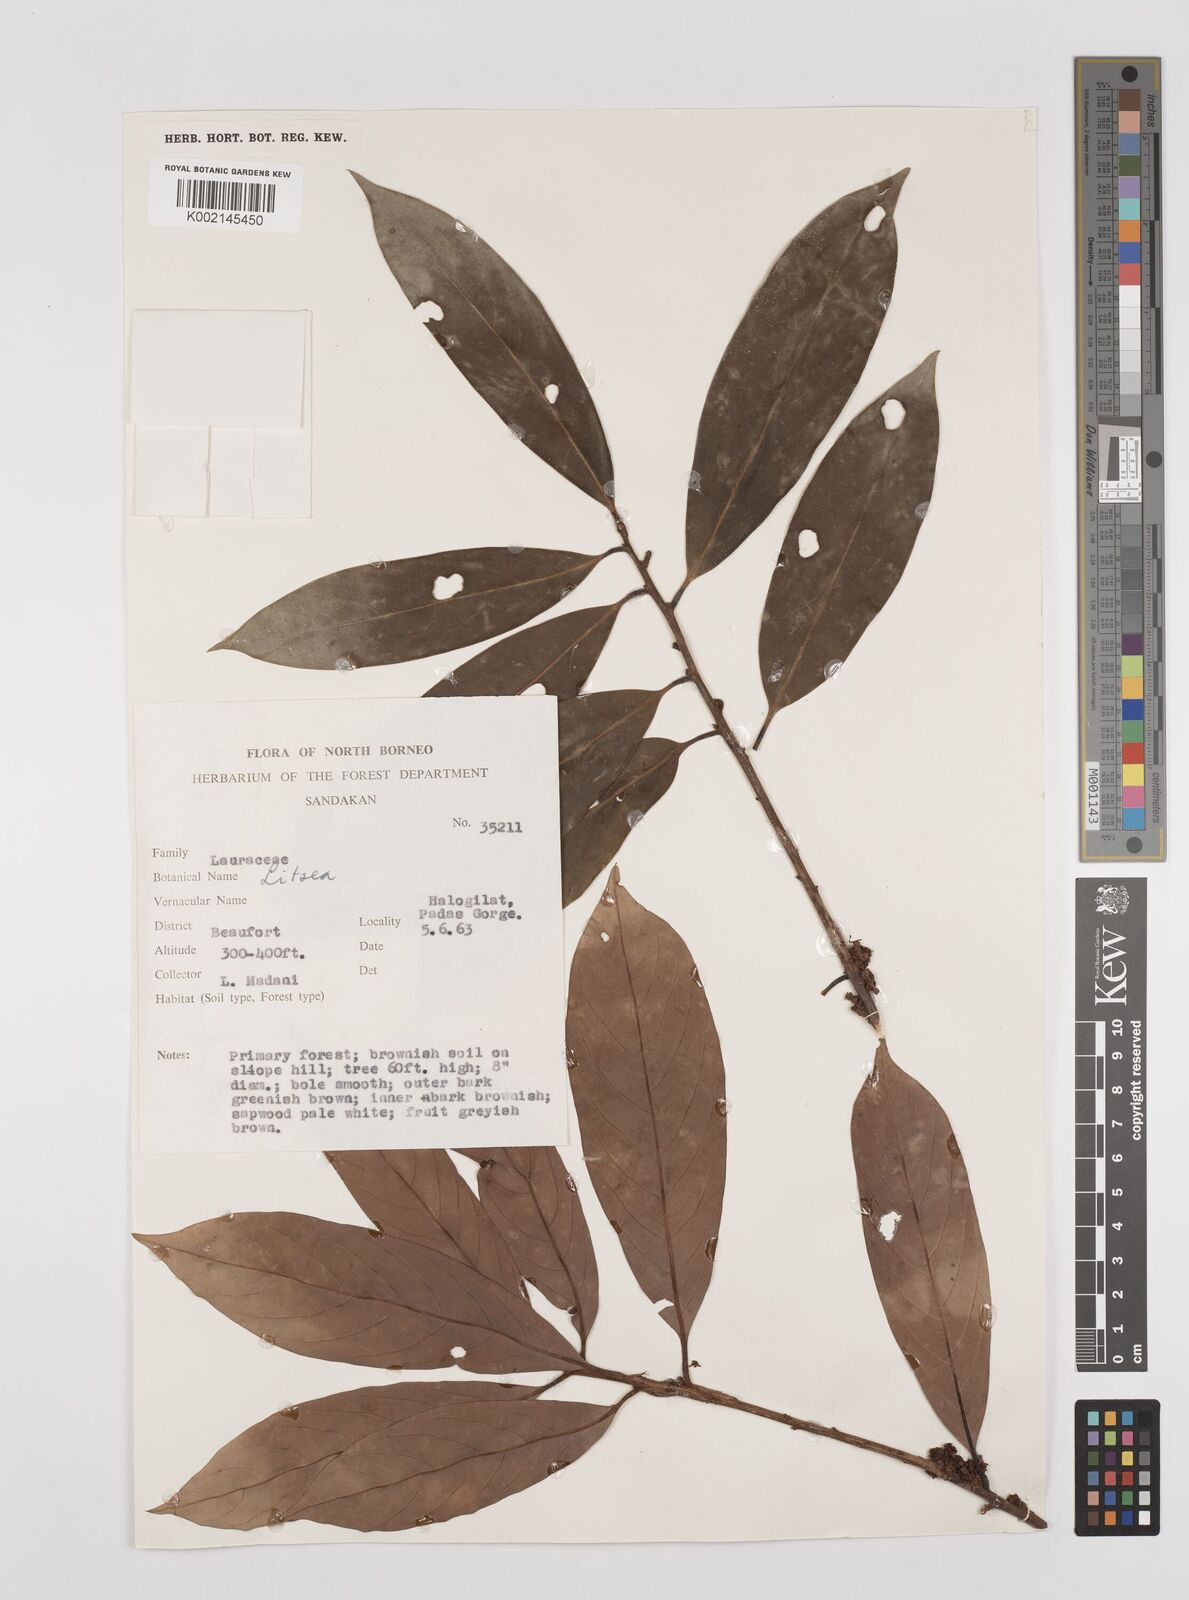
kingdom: Plantae
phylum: Tracheophyta
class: Magnoliopsida
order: Laurales
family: Lauraceae
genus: Litsea
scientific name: Litsea
